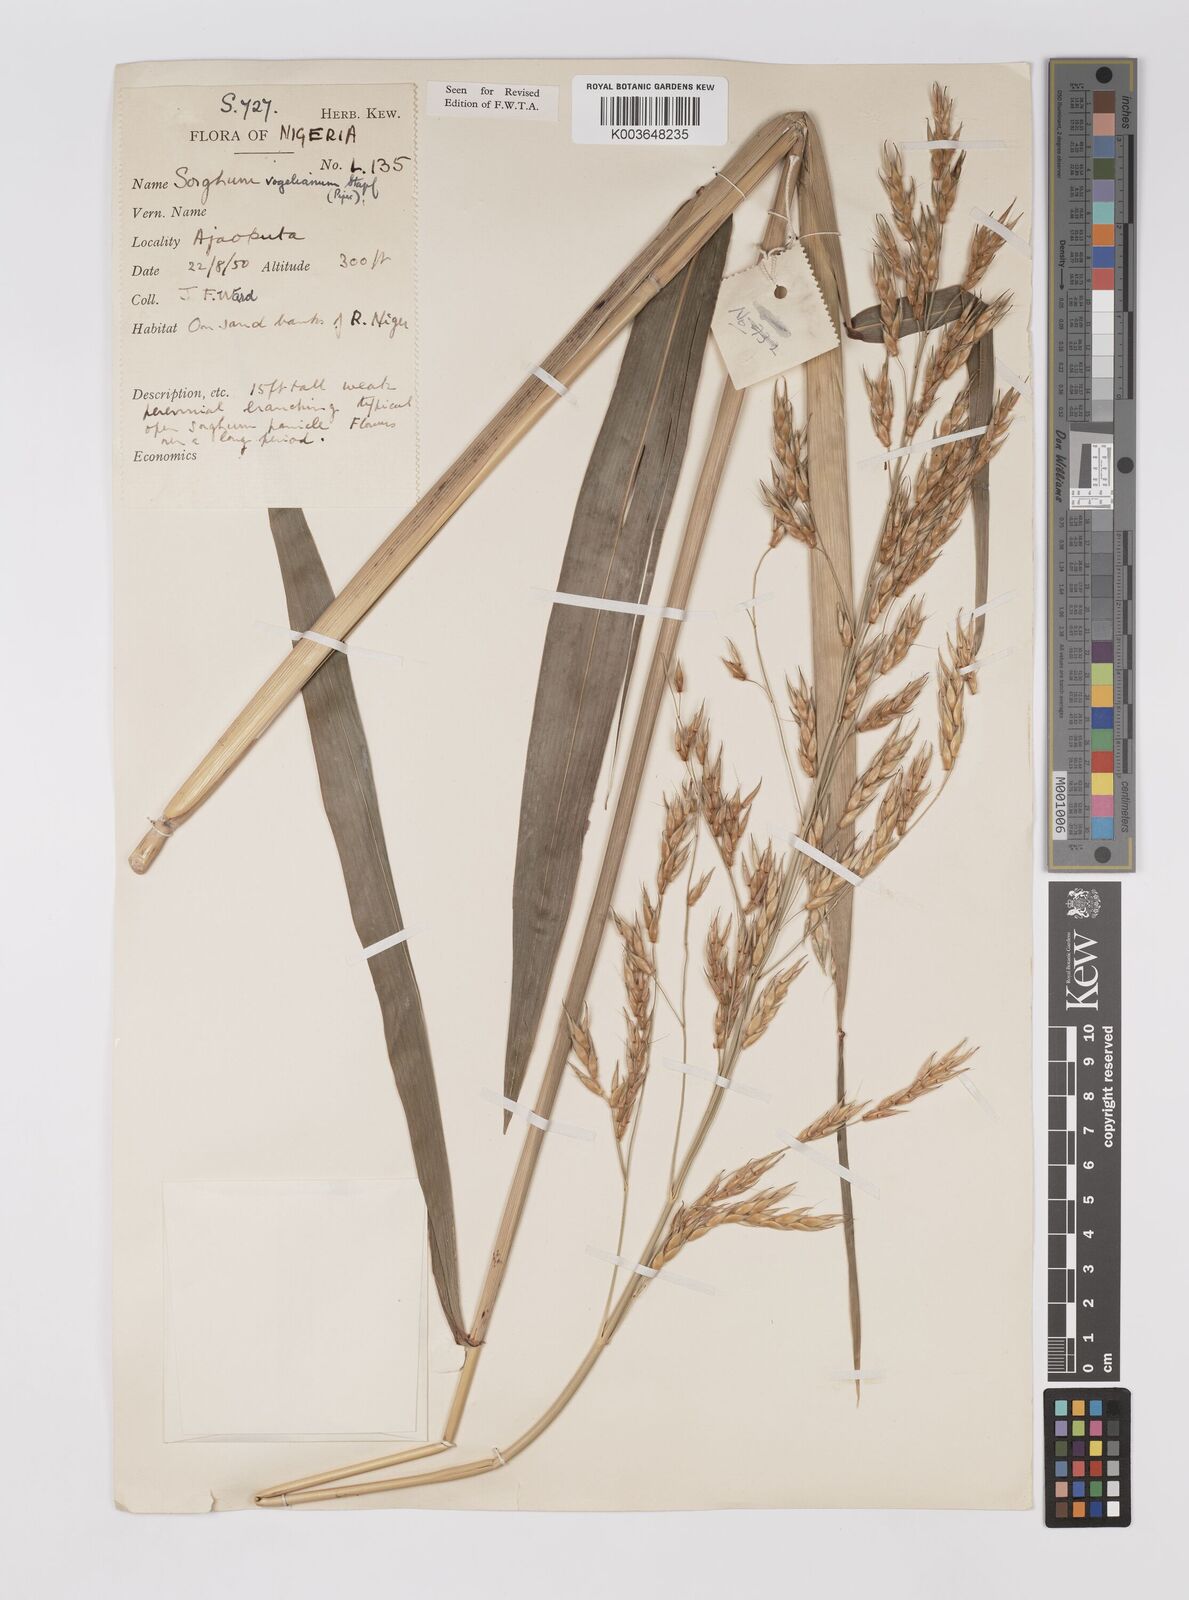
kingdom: Plantae
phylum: Tracheophyta
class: Liliopsida
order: Poales
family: Poaceae
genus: Sorghum
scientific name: Sorghum arundinaceum
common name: Sorghum
